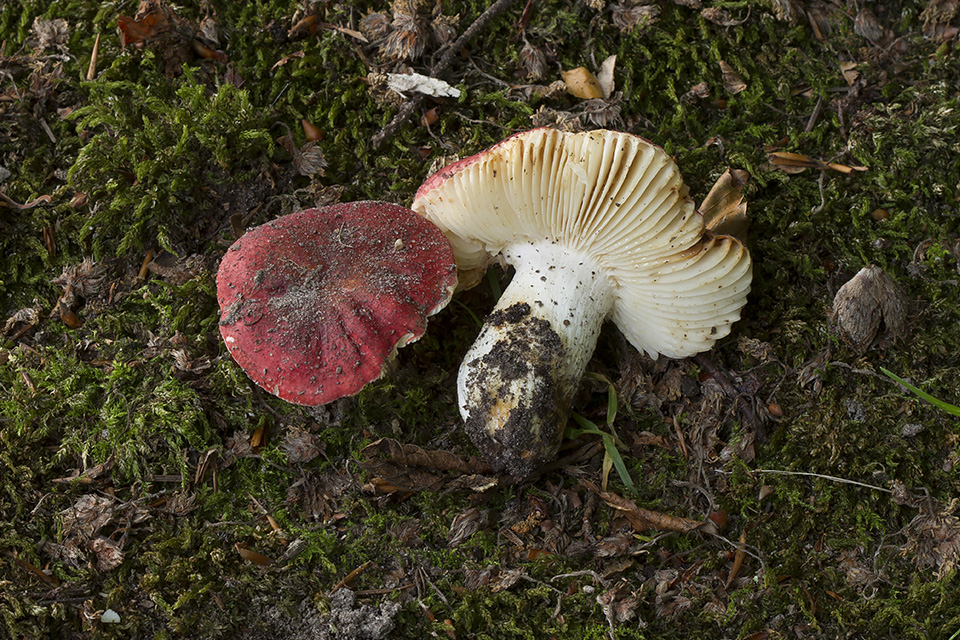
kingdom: Fungi
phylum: Basidiomycota
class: Agaricomycetes
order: Russulales
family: Russulaceae
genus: Russula
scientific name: Russula melliolens
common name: honning-skørhat
